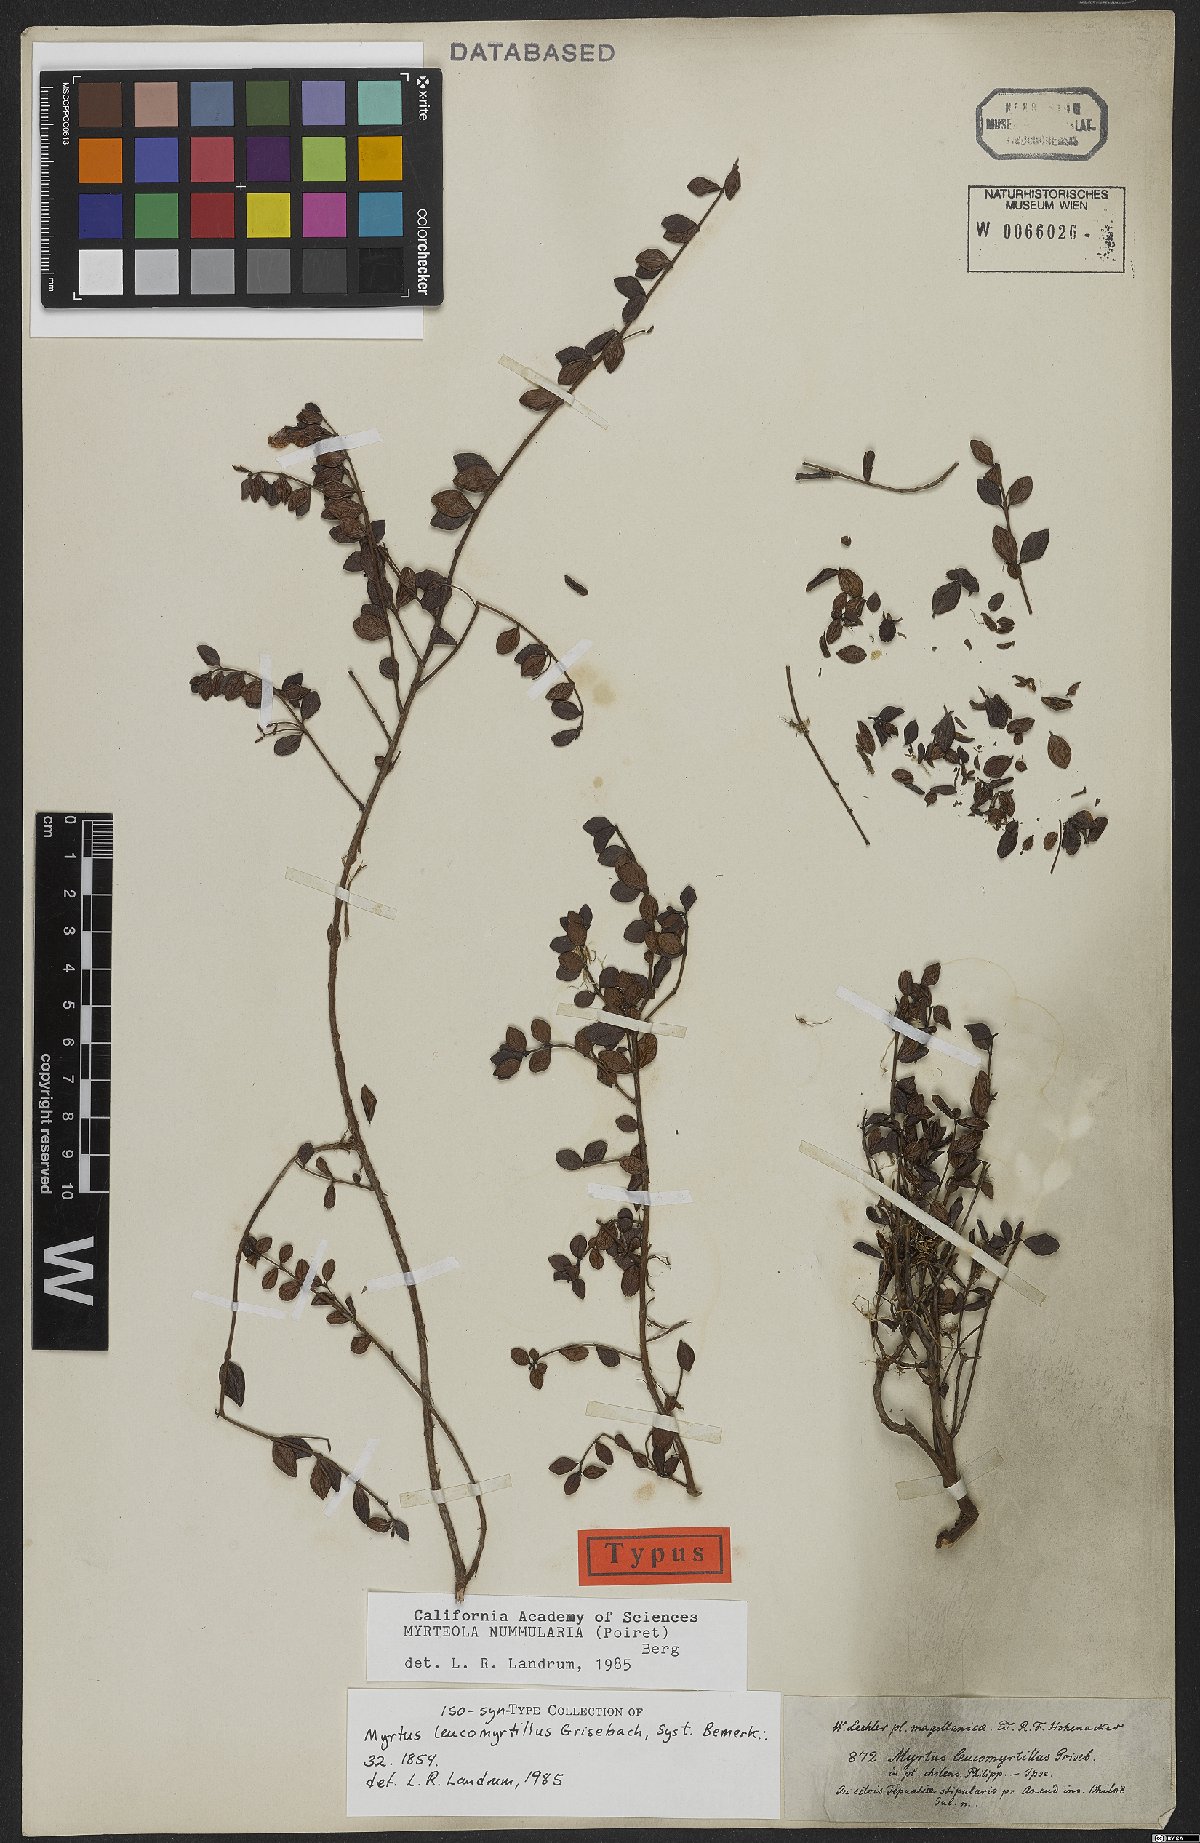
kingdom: Plantae
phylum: Tracheophyta
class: Magnoliopsida
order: Myrtales
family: Myrtaceae
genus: Myrteola
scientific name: Myrteola nummularia
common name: Cranberry-myrtle
